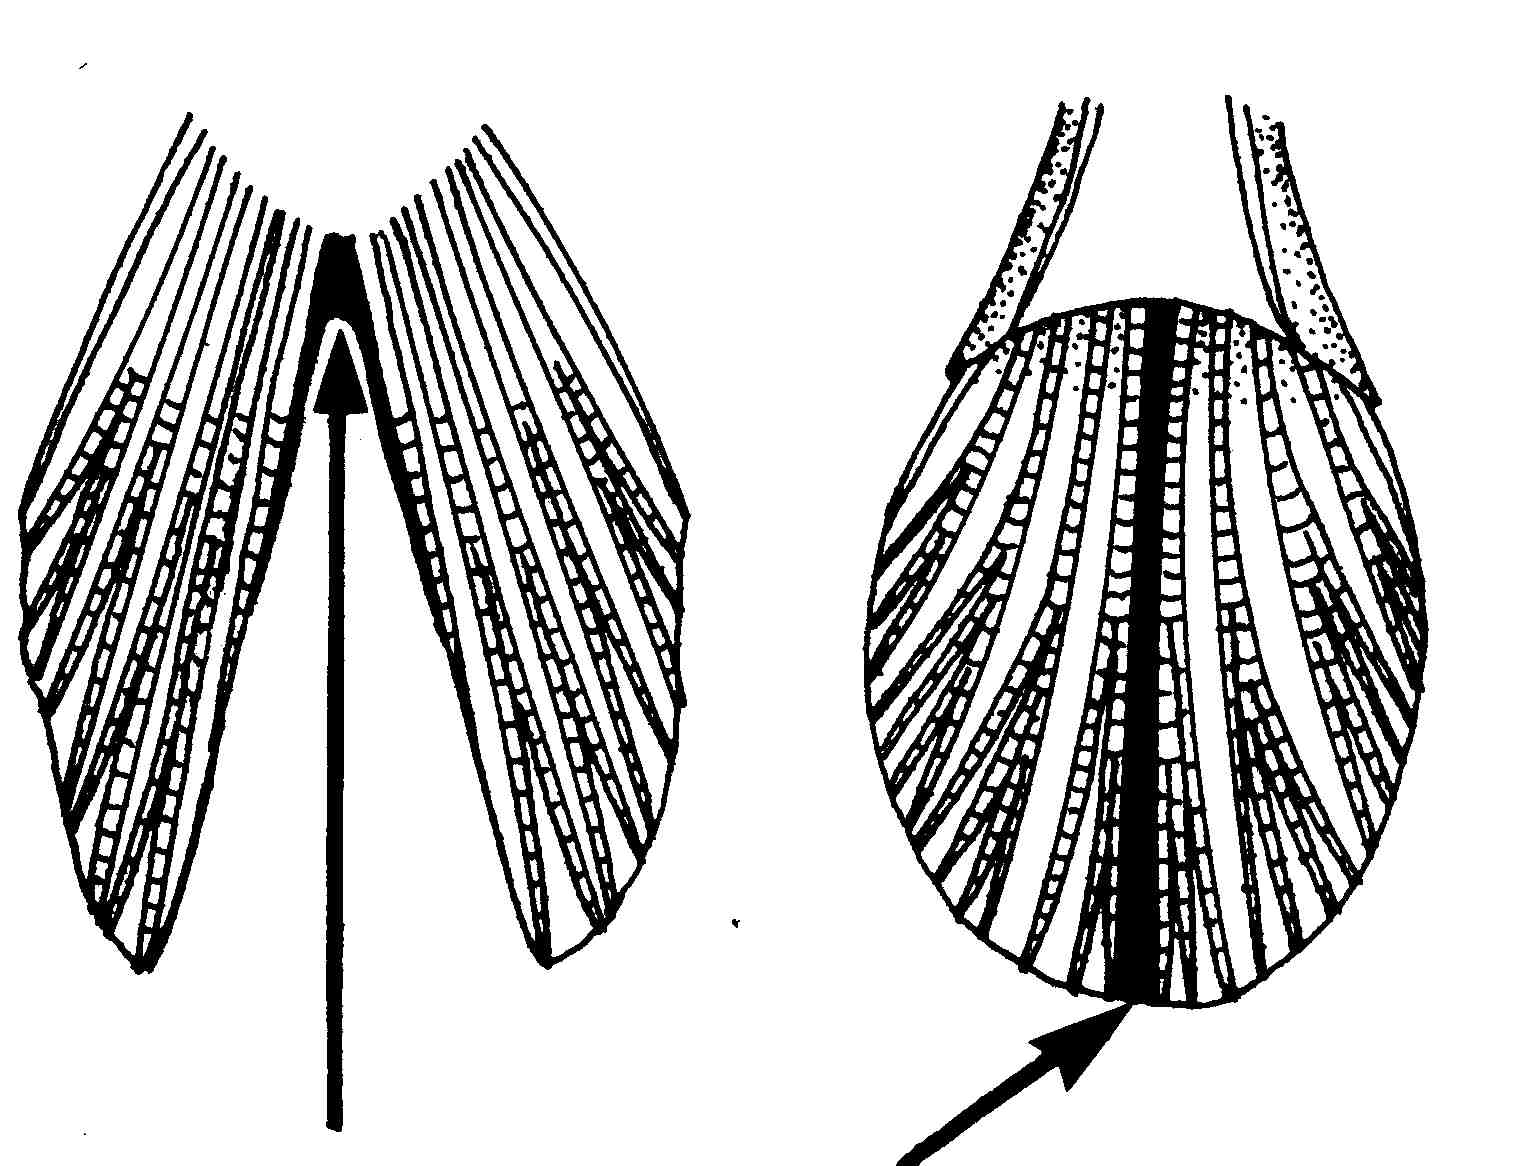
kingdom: Animalia
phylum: Chordata
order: Perciformes
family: Gobiidae
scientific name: Gobiidae
